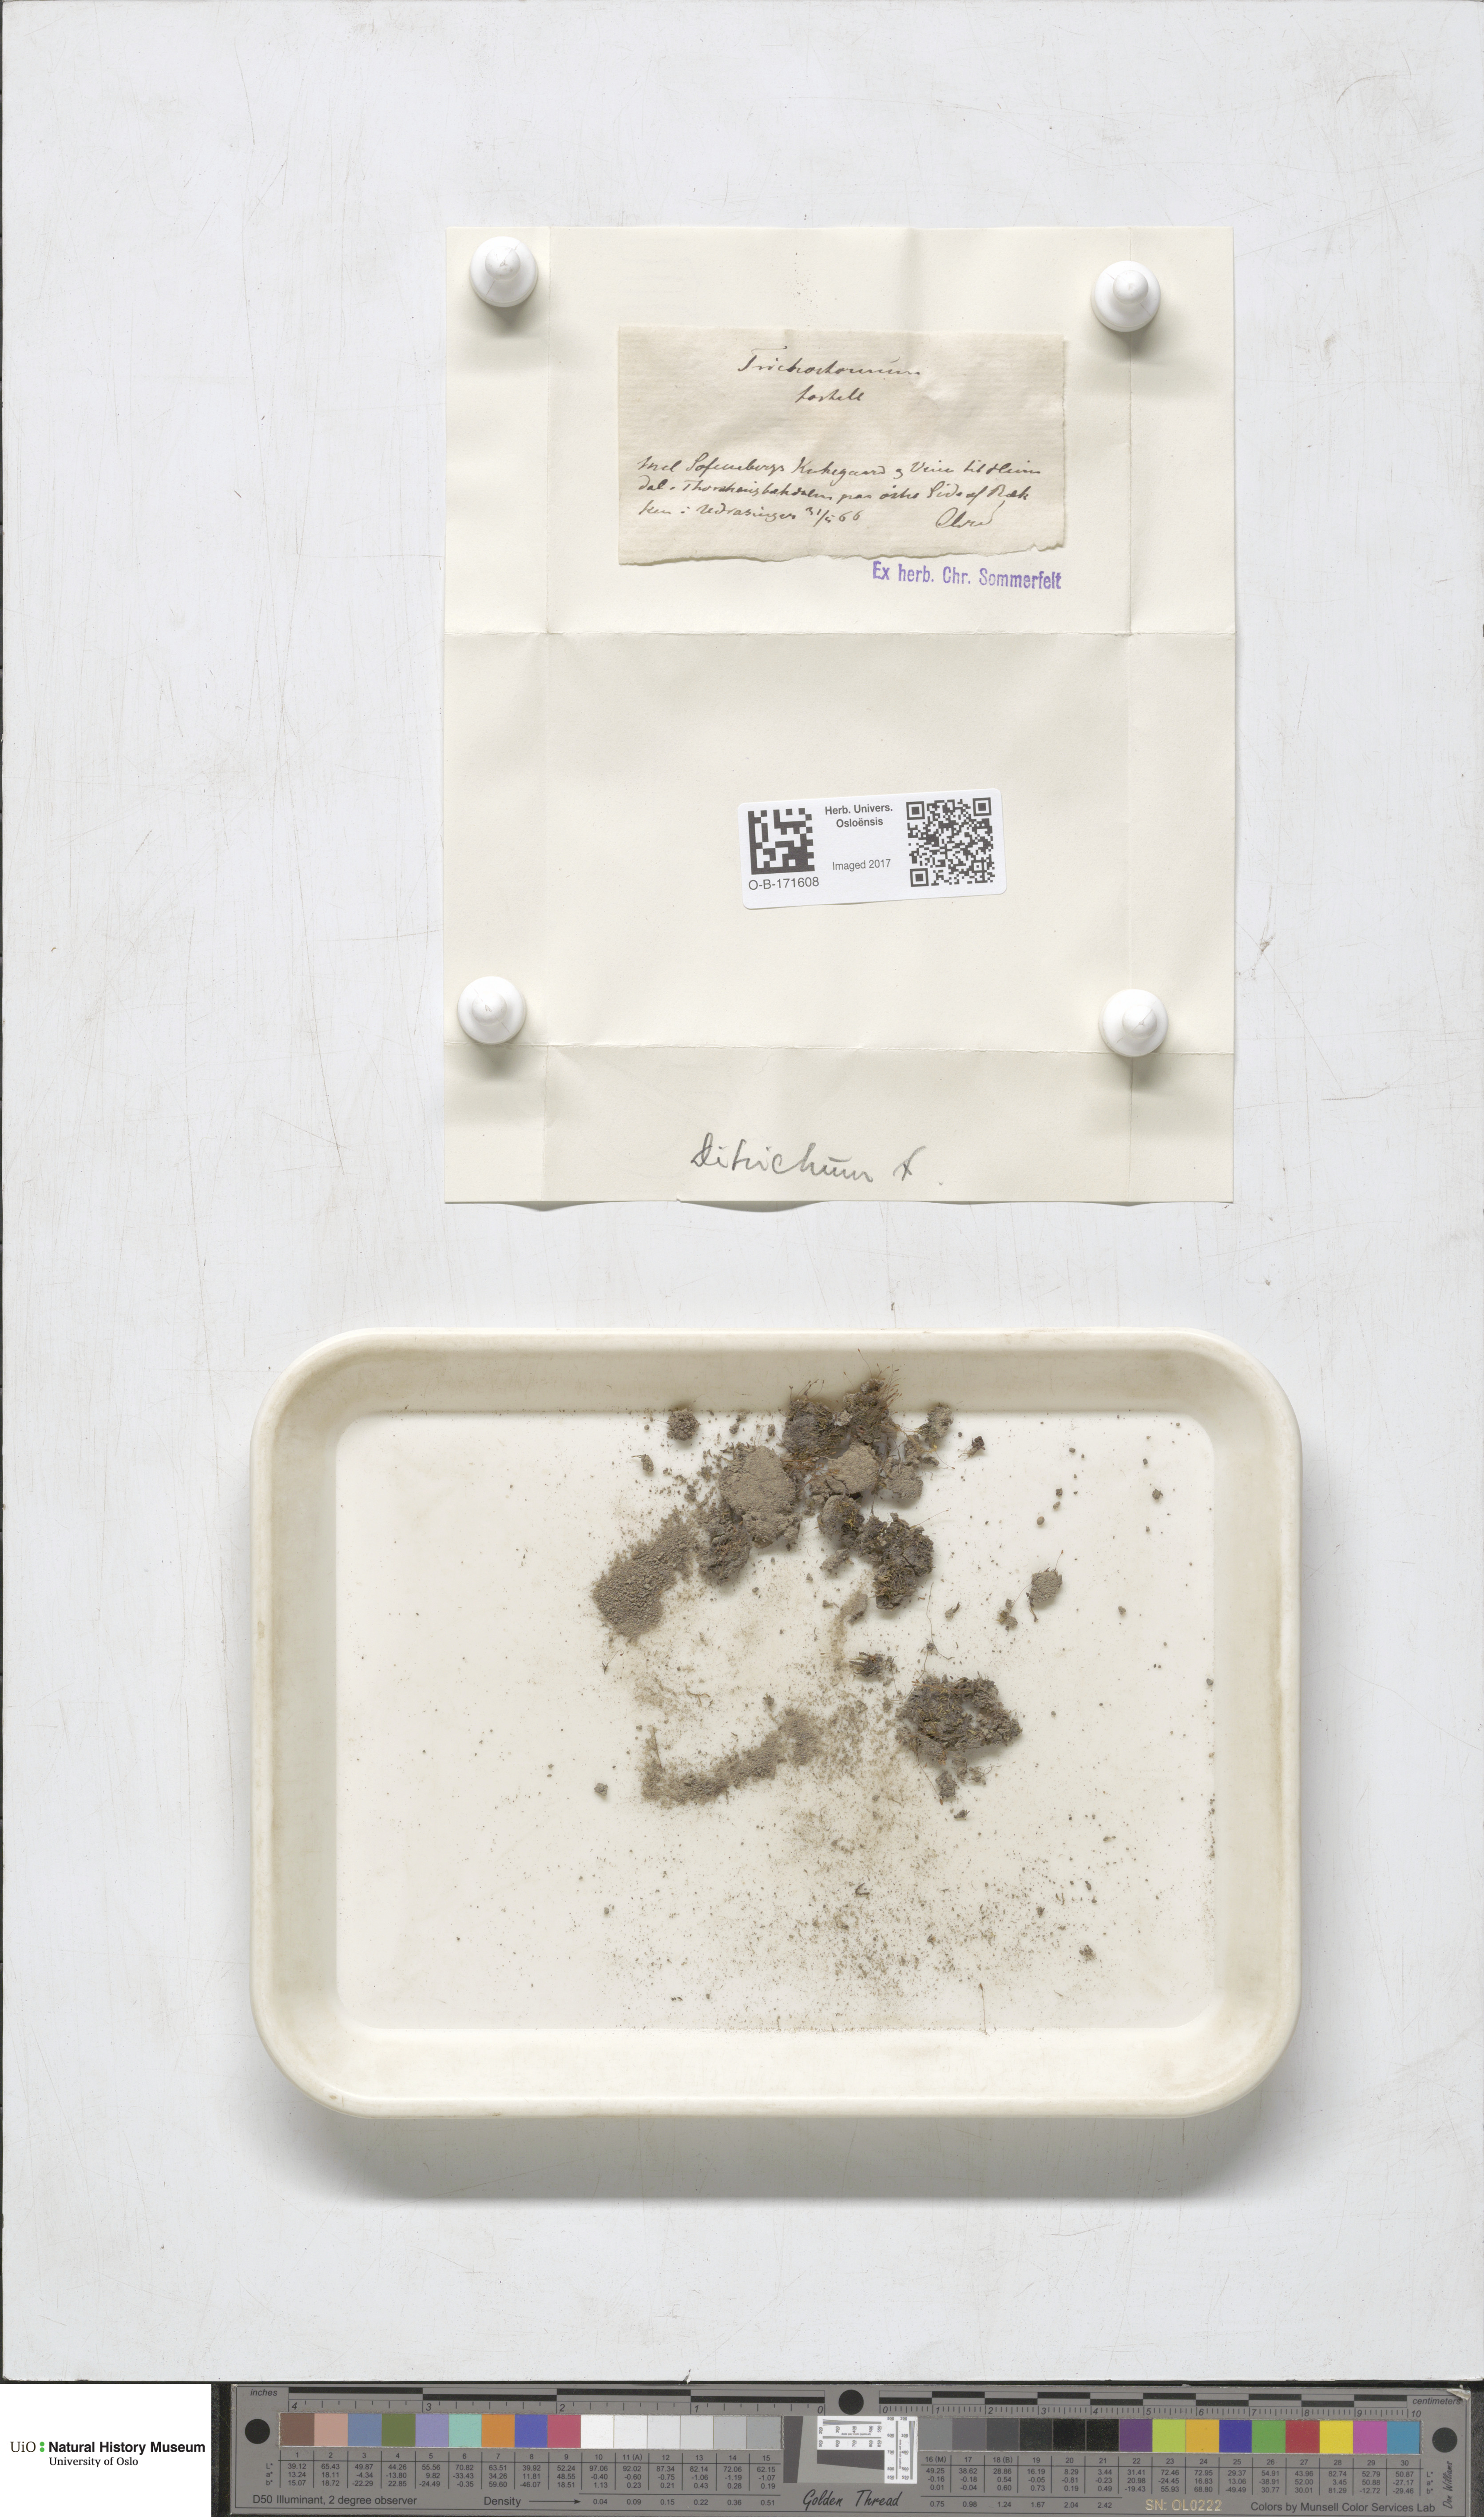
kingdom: Plantae
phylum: Bryophyta
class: Bryopsida
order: Dicranales
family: Ditrichaceae
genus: Ditrichum
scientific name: Ditrichum pusillum
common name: Brown cow-hair moss
